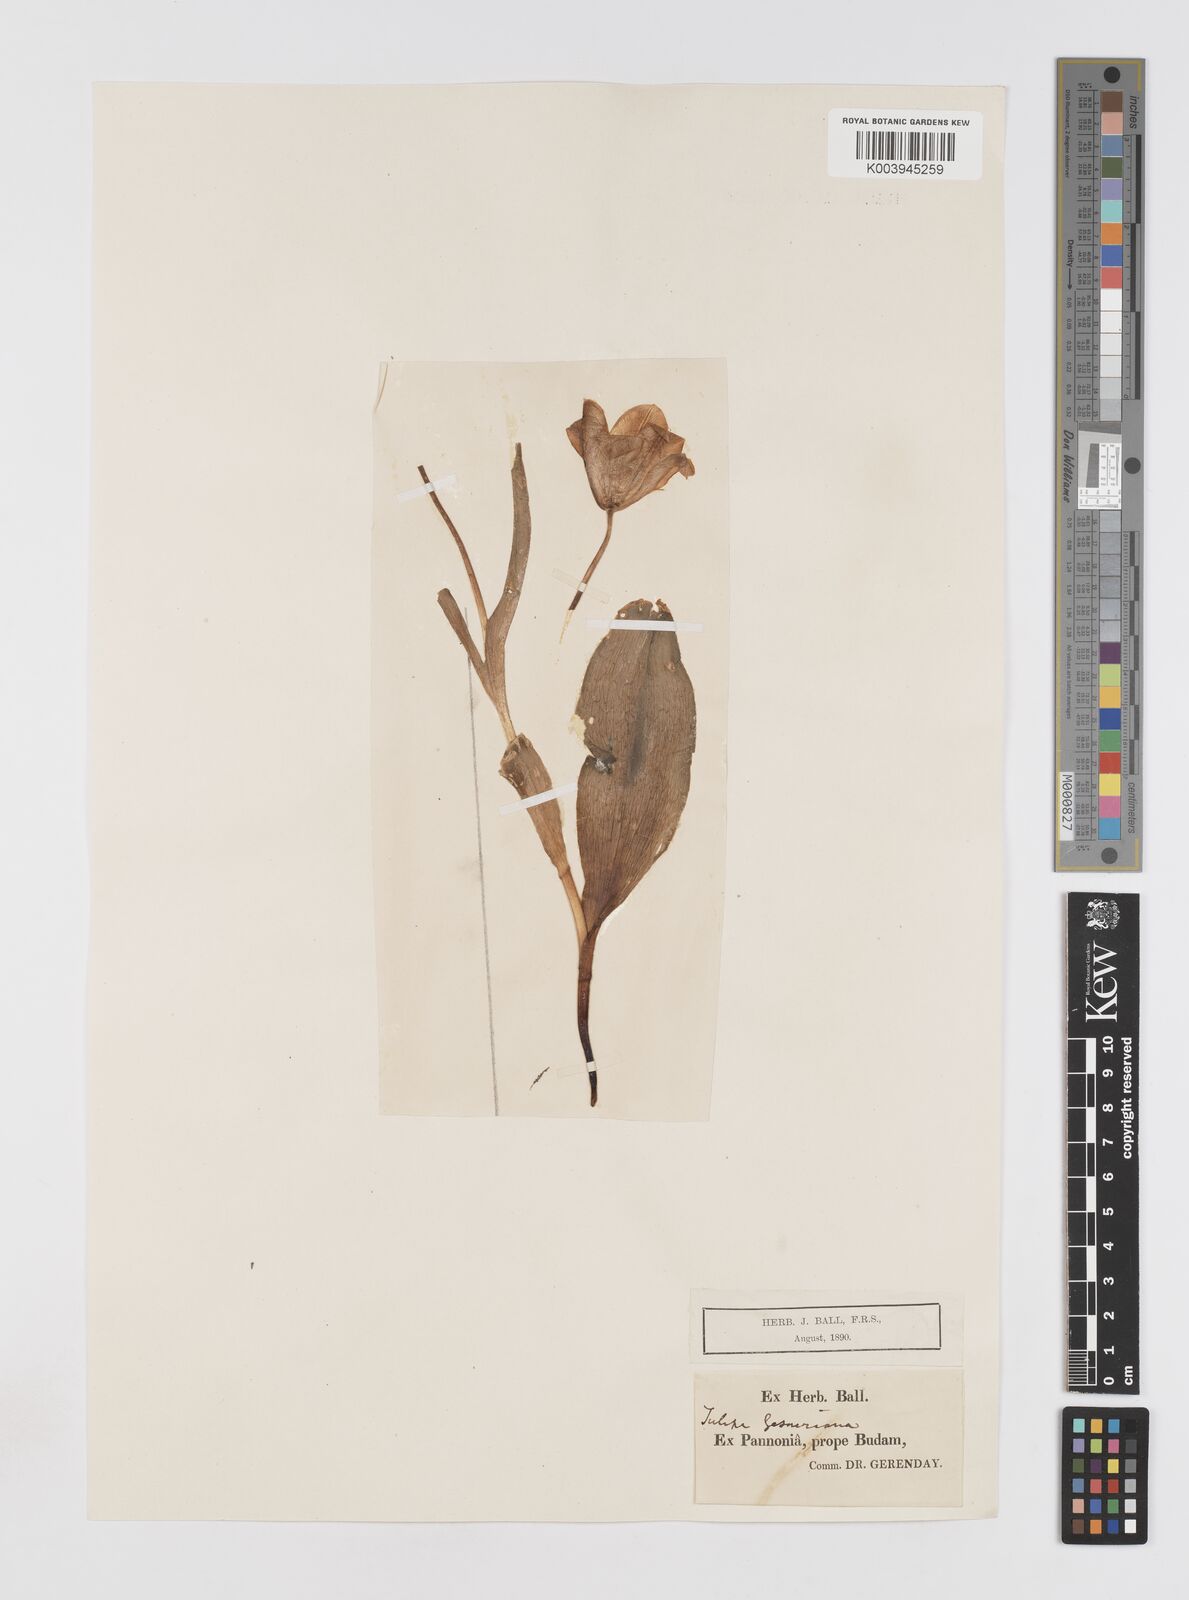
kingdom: Plantae
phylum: Tracheophyta
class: Liliopsida
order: Liliales
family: Liliaceae
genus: Tulipa
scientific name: Tulipa hungarica
